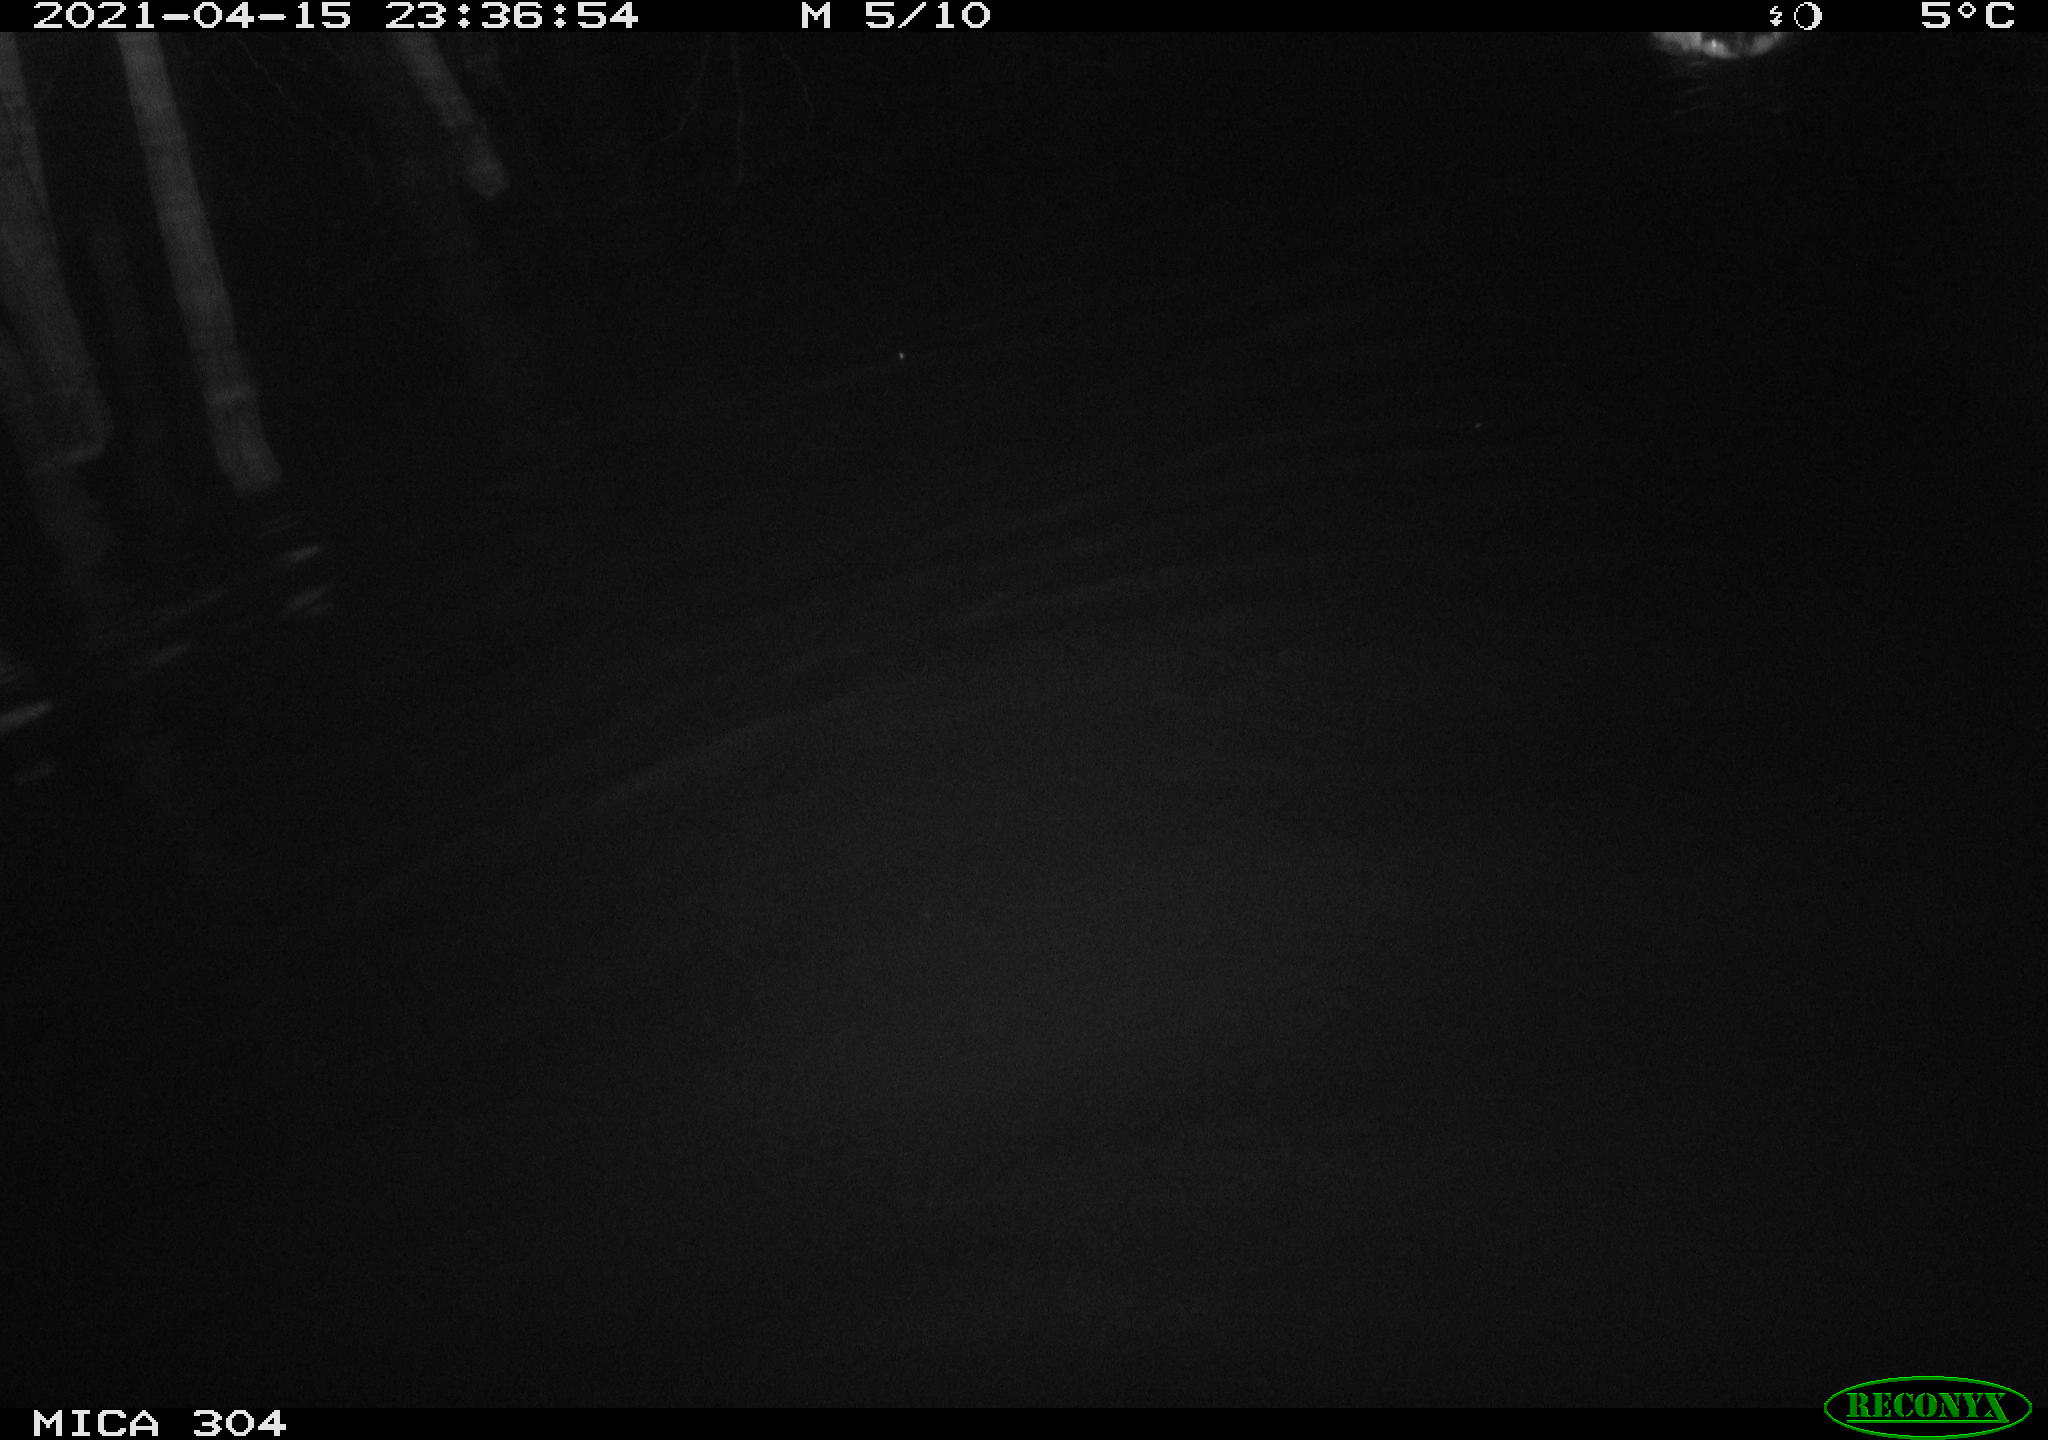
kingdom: Animalia
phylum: Chordata
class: Aves
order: Anseriformes
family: Anatidae
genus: Anas
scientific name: Anas
